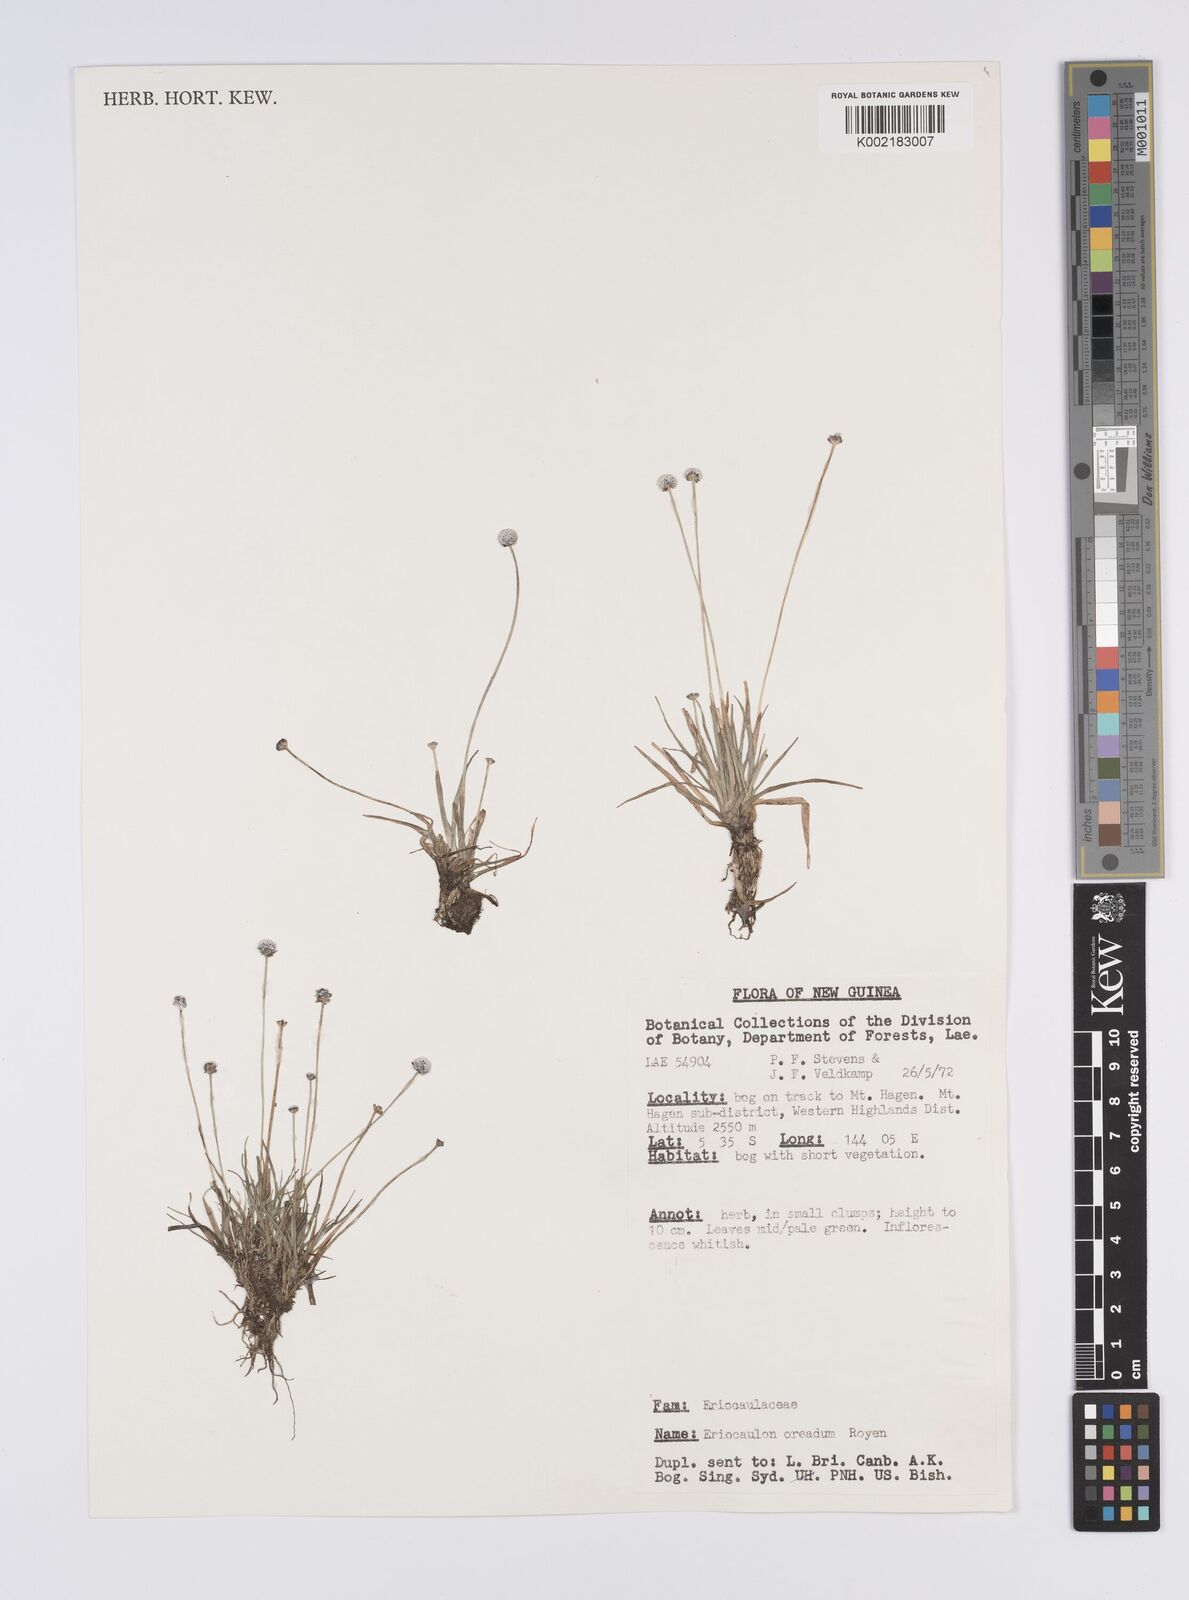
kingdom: Plantae
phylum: Tracheophyta
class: Liliopsida
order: Poales
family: Eriocaulaceae
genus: Eriocaulon
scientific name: Eriocaulon oreadum
